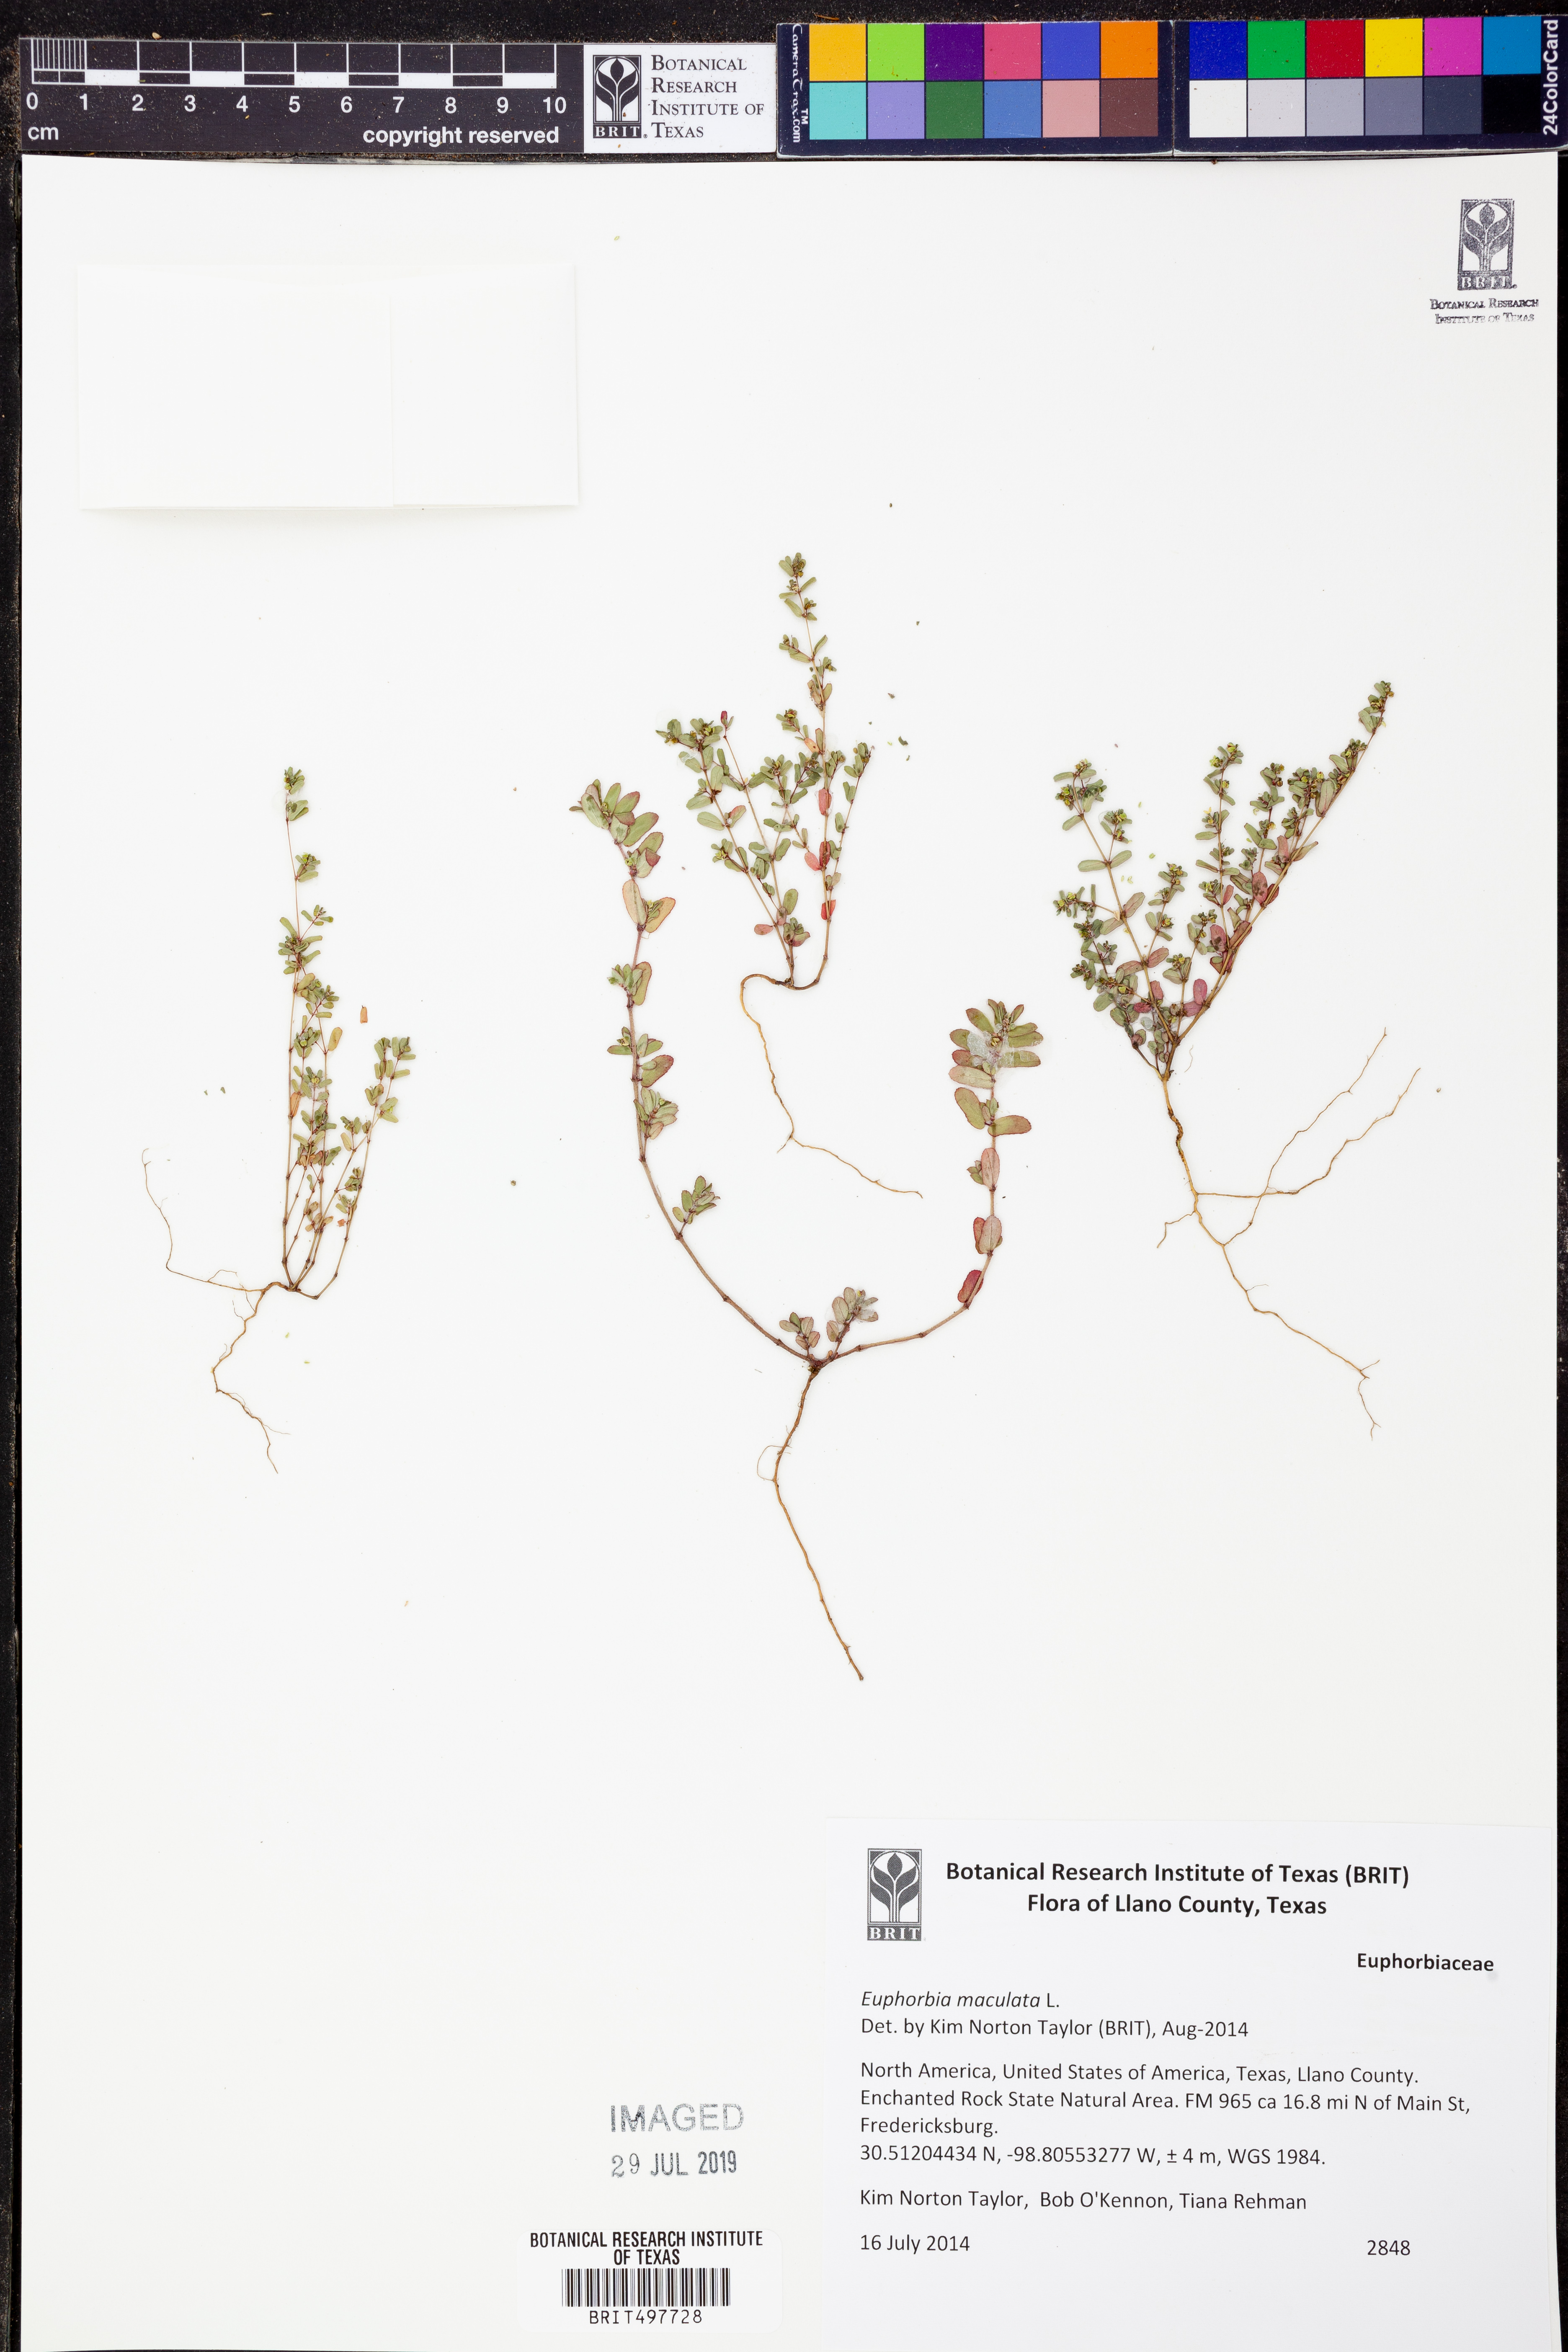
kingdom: Plantae
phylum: Tracheophyta
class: Magnoliopsida
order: Malpighiales
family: Euphorbiaceae
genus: Euphorbia
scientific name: Euphorbia maculata
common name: Spotted spurge
